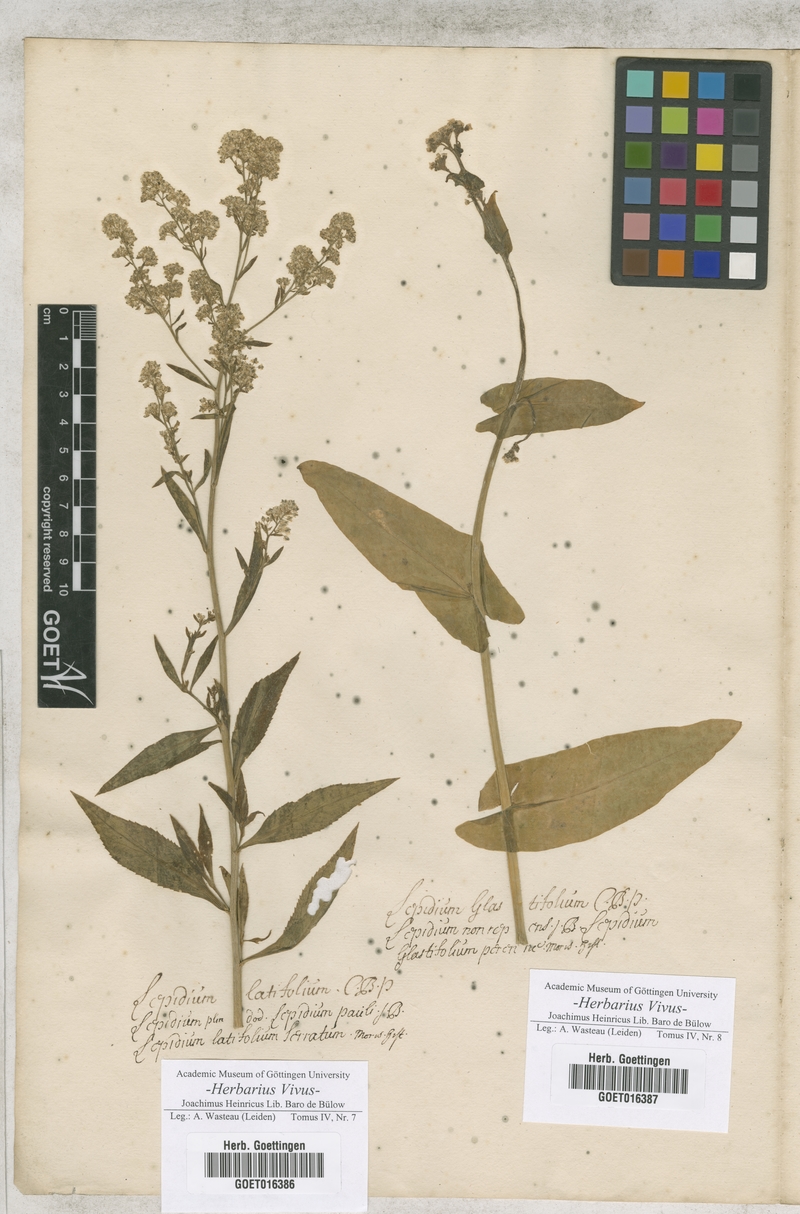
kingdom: Plantae
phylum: Tracheophyta
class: Magnoliopsida
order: Brassicales
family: Brassicaceae
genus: Lepidium
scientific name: Lepidium latifolium
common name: Dittander
